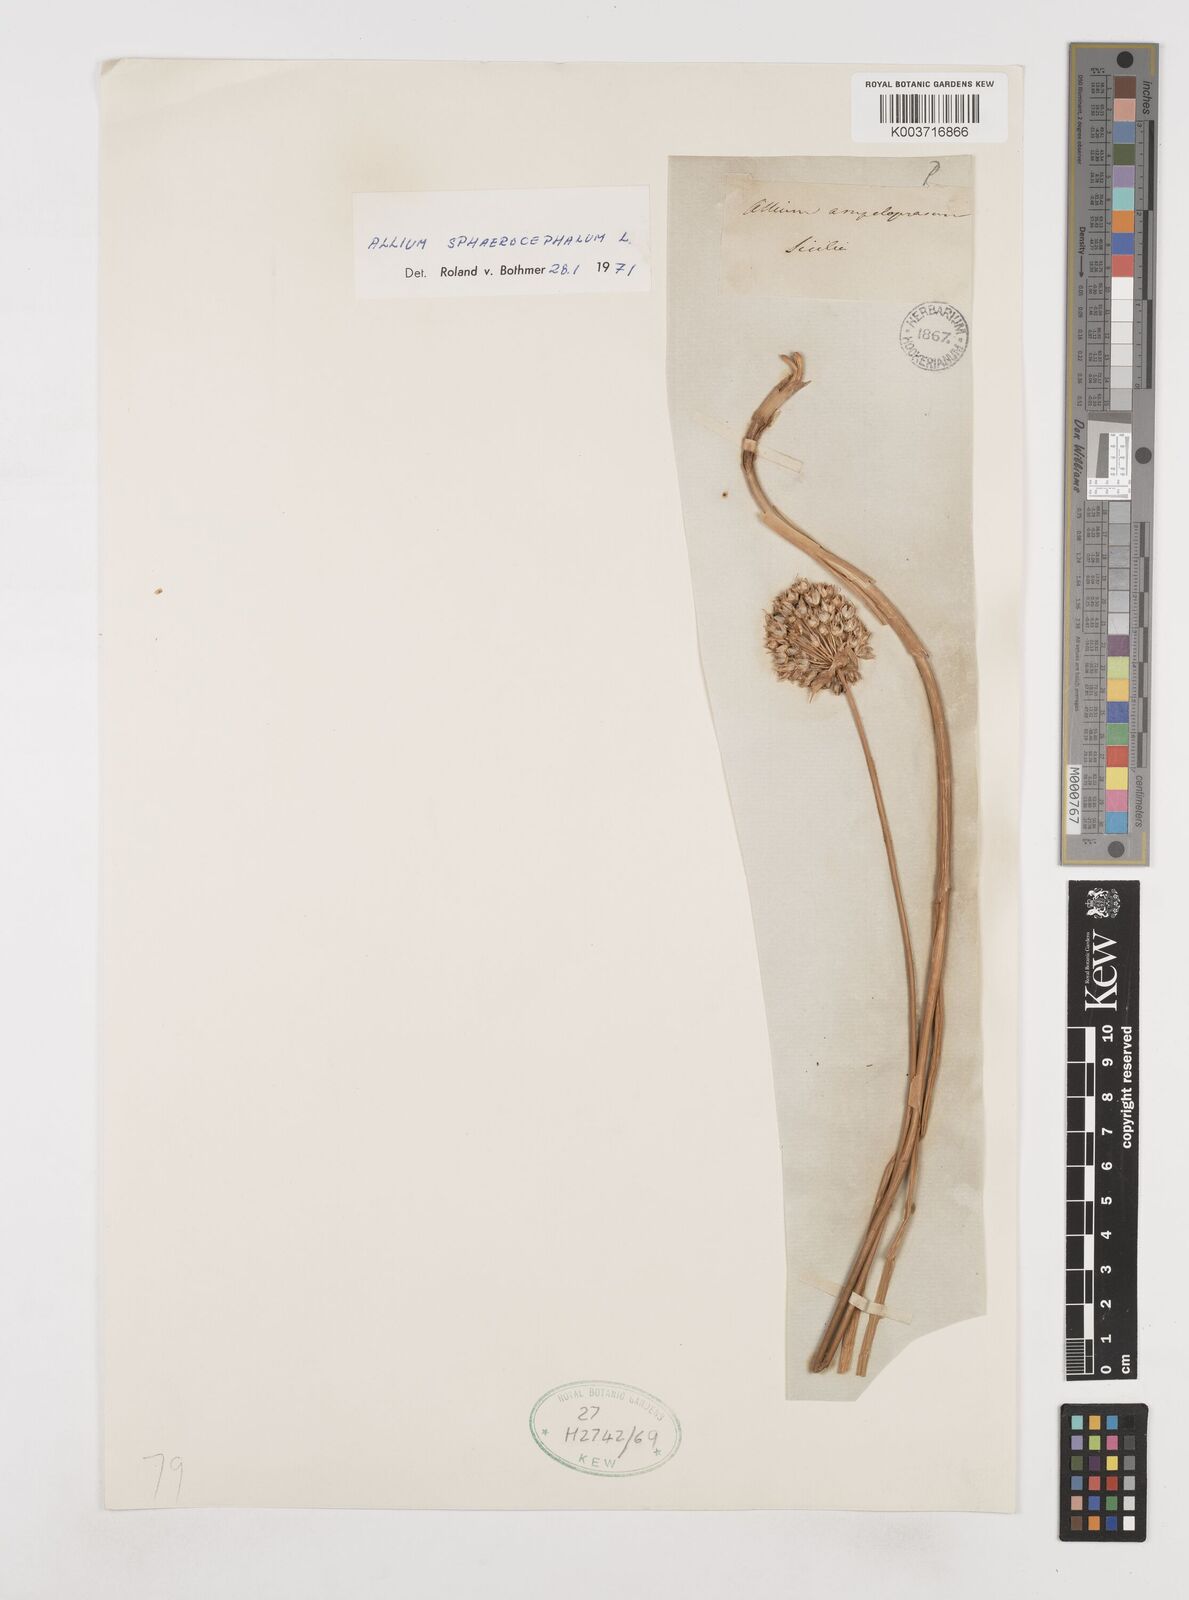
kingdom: Plantae
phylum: Tracheophyta
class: Liliopsida
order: Asparagales
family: Amaryllidaceae
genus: Allium
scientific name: Allium sphaerocephalon
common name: Round-headed leek
